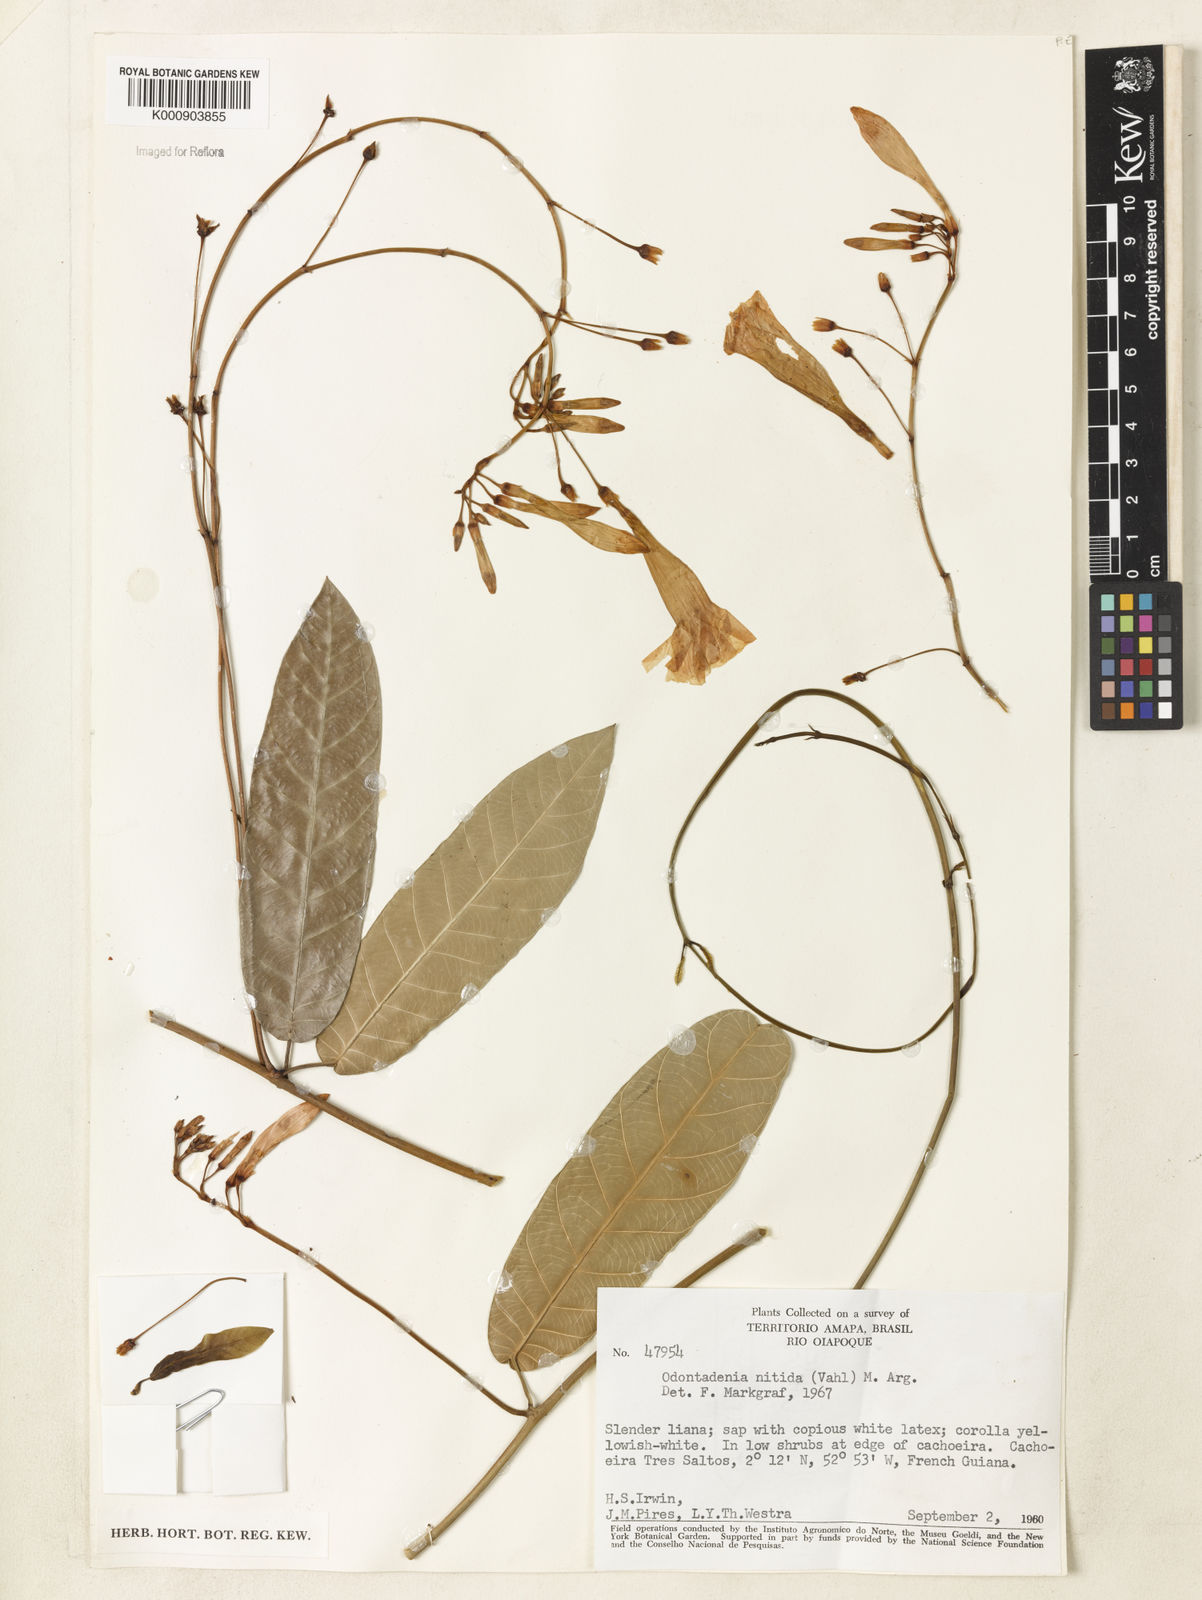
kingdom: Plantae
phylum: Tracheophyta
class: Magnoliopsida
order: Gentianales
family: Apocynaceae
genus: Odontadenia
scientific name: Odontadenia
